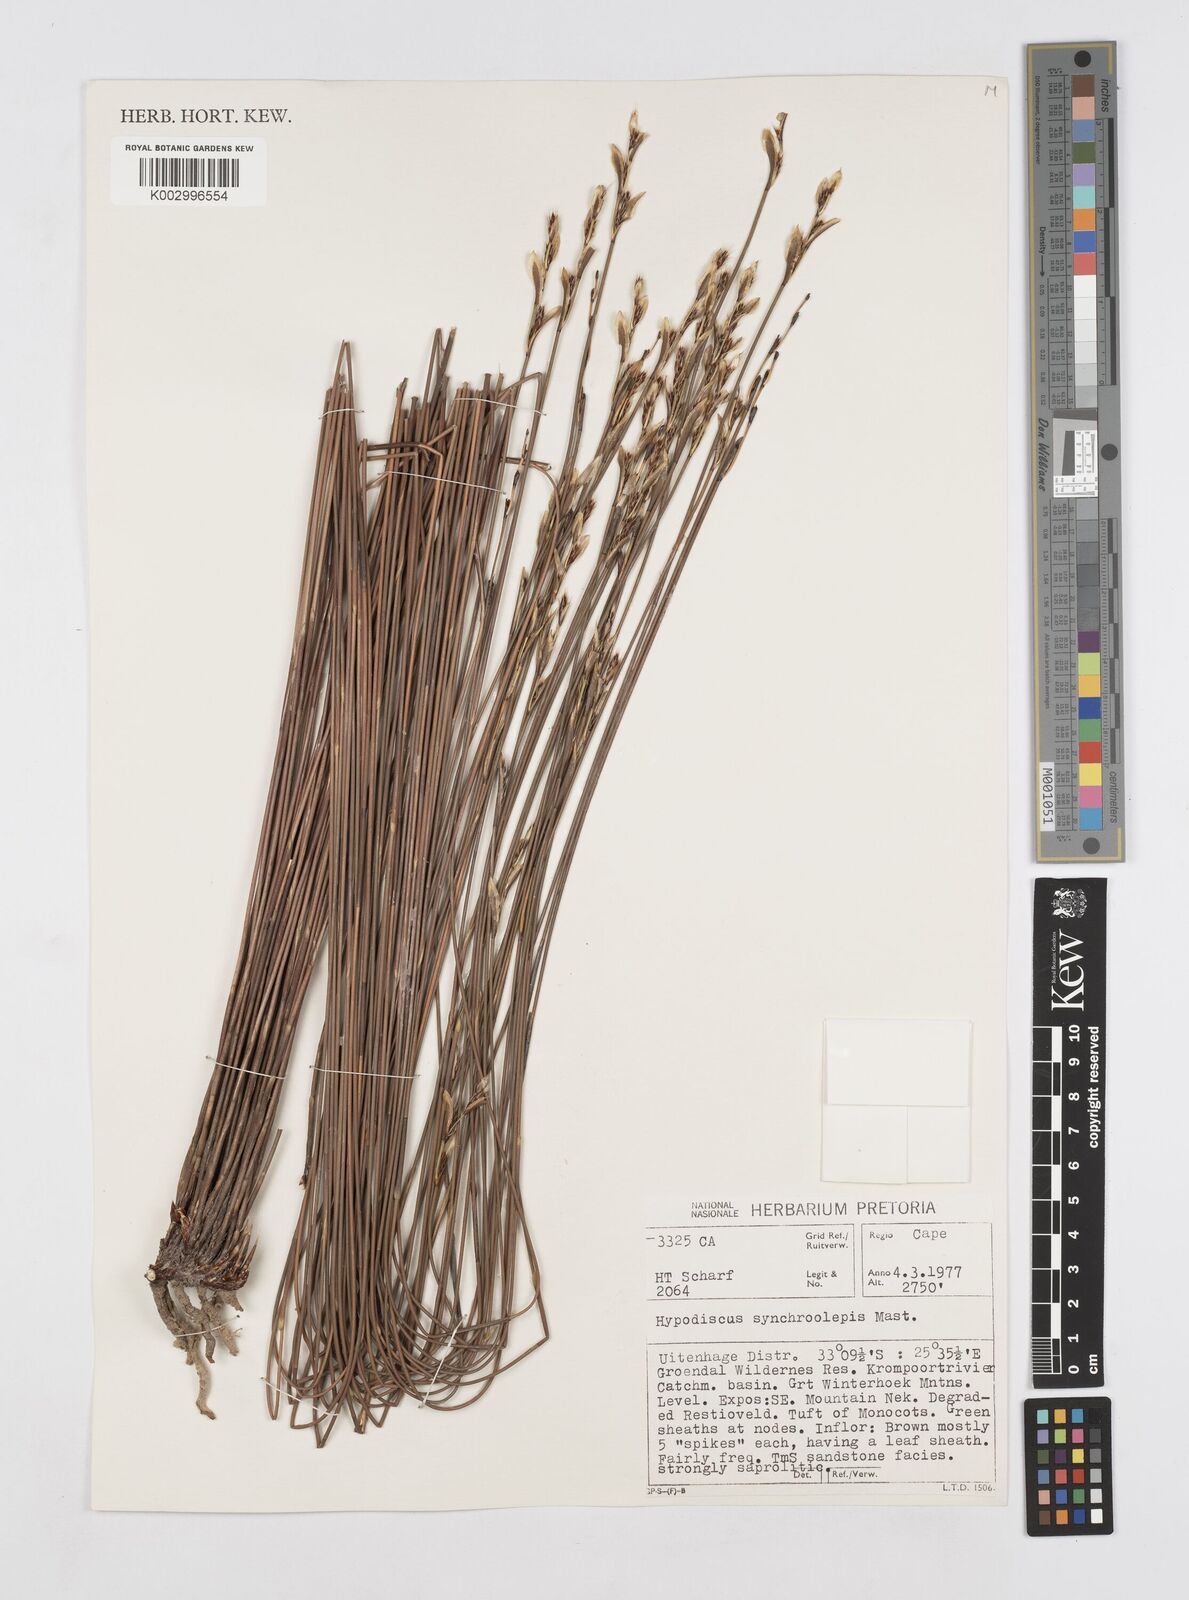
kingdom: Plantae
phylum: Tracheophyta
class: Liliopsida
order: Poales
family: Restionaceae
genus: Hypodiscus
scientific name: Hypodiscus synchroolepis
